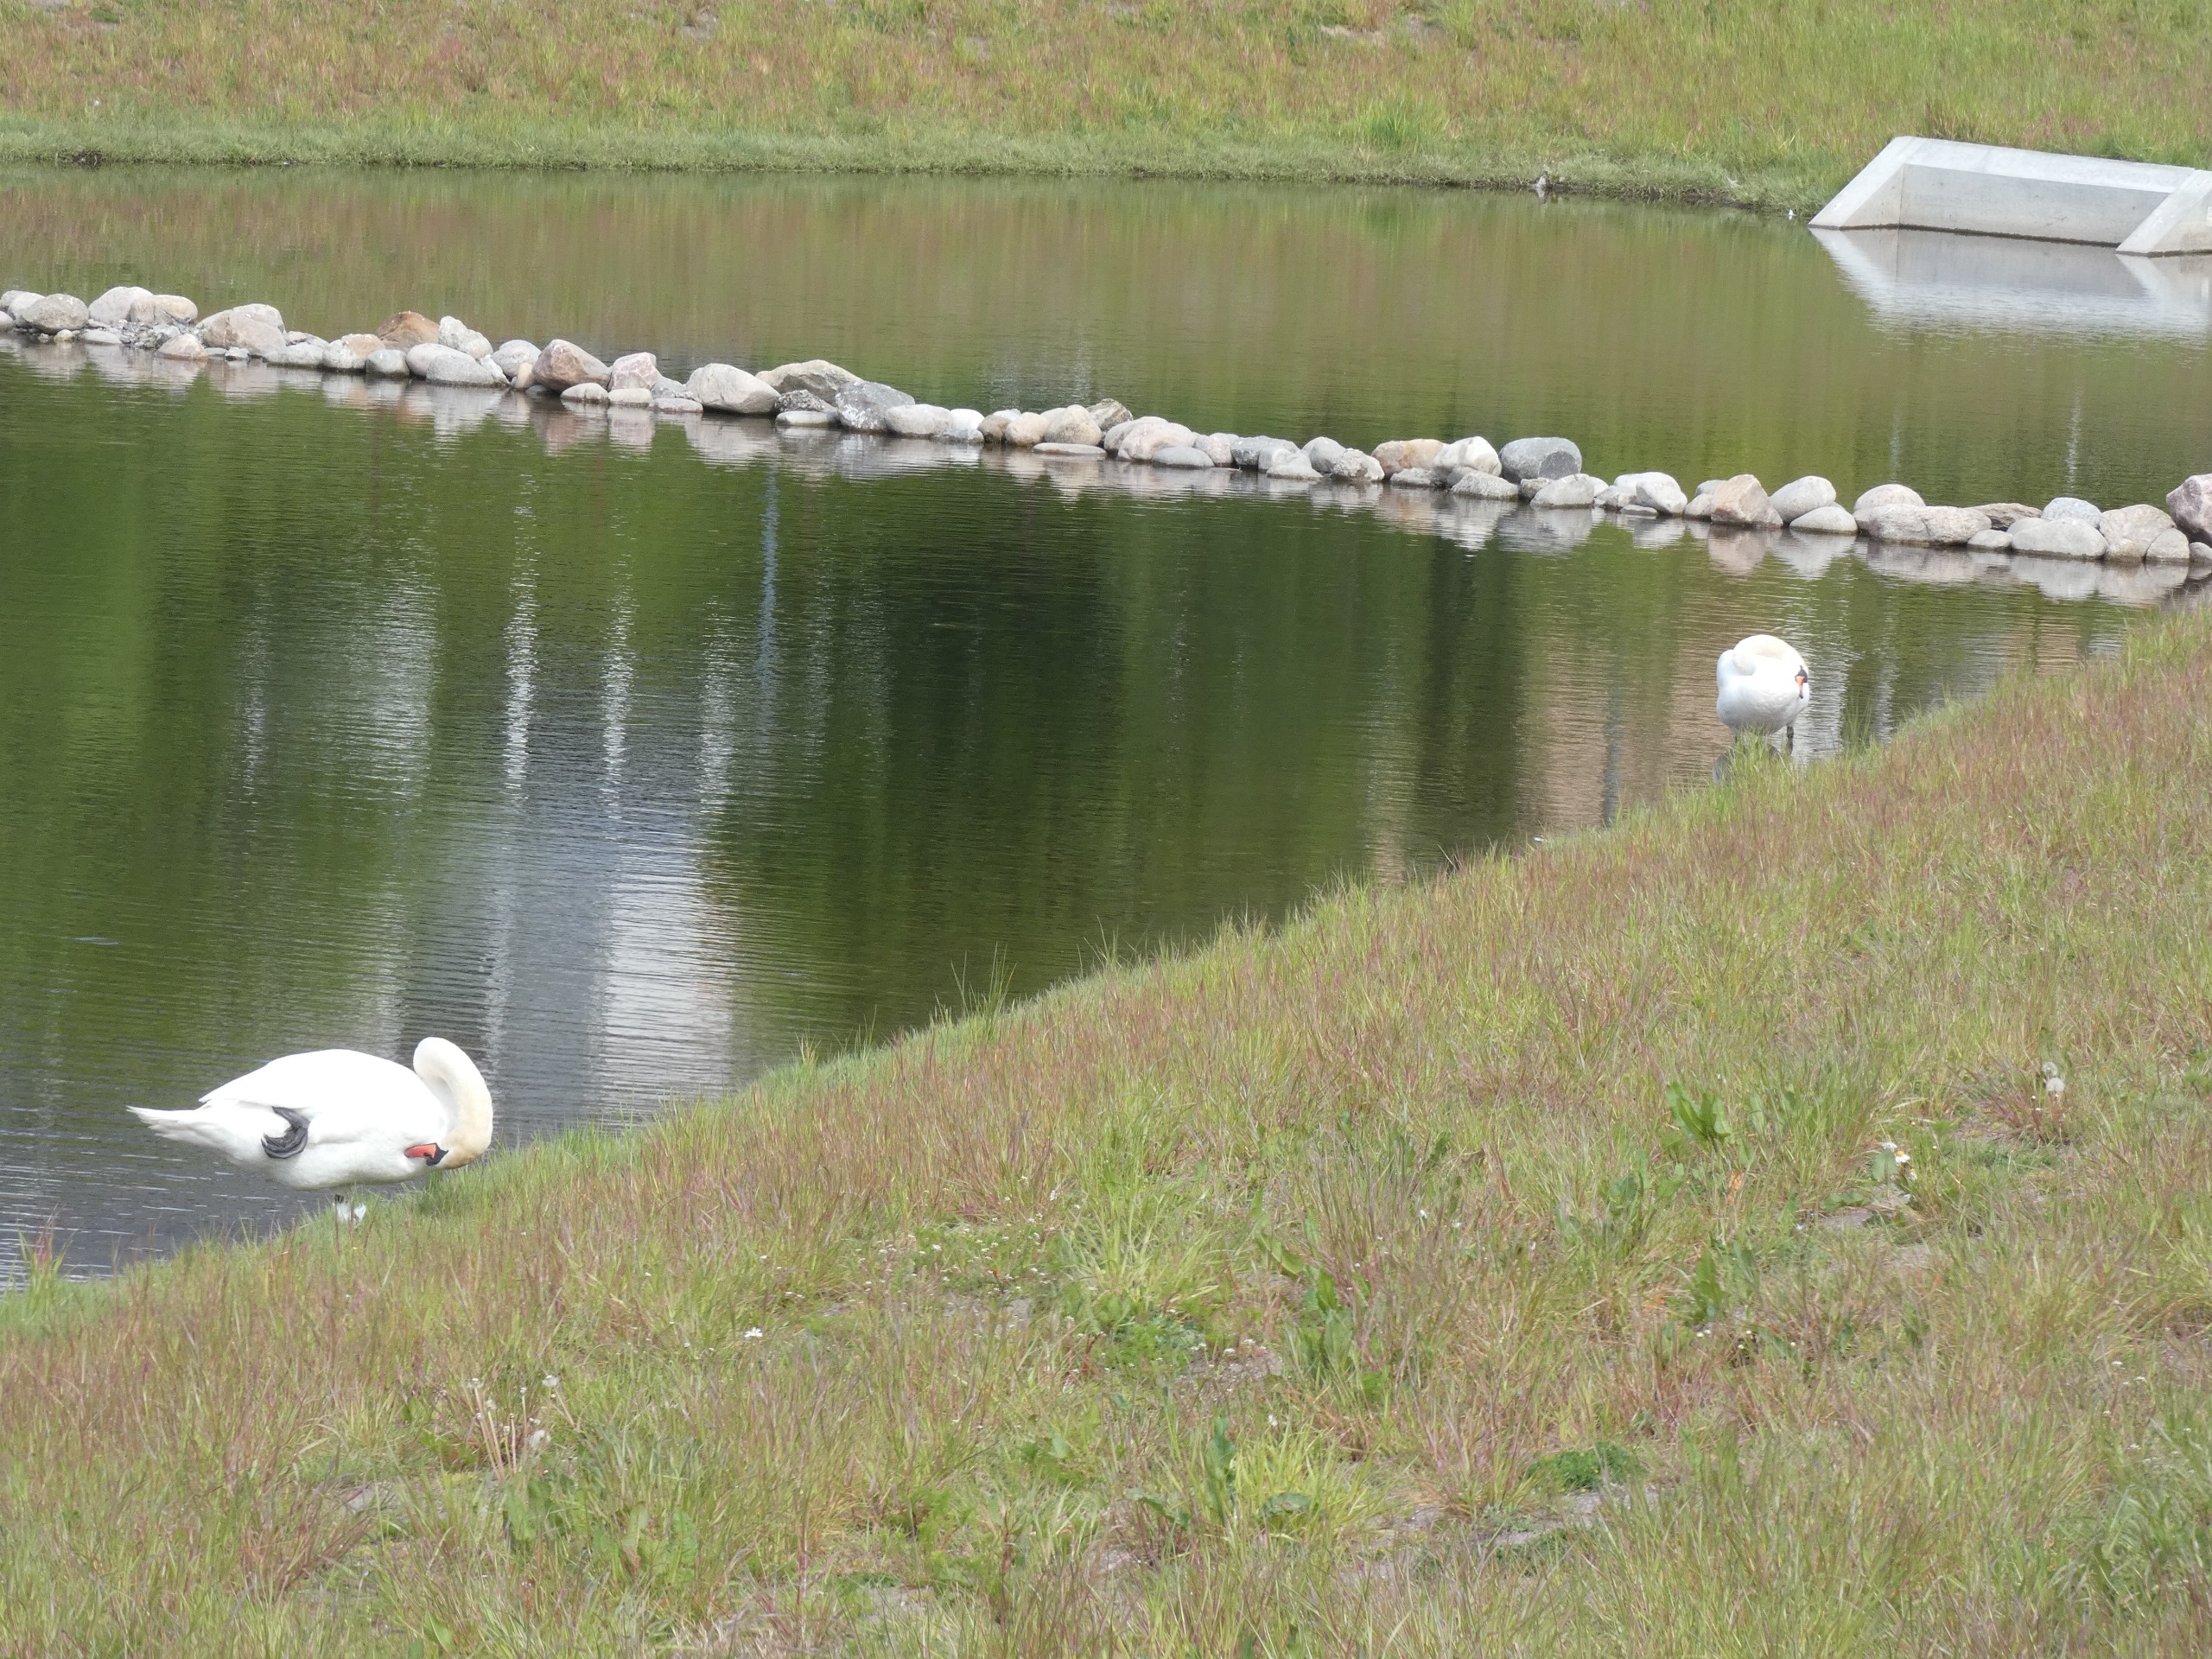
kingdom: Animalia
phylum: Chordata
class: Aves
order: Anseriformes
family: Anatidae
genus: Cygnus
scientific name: Cygnus olor
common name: Knopsvane
